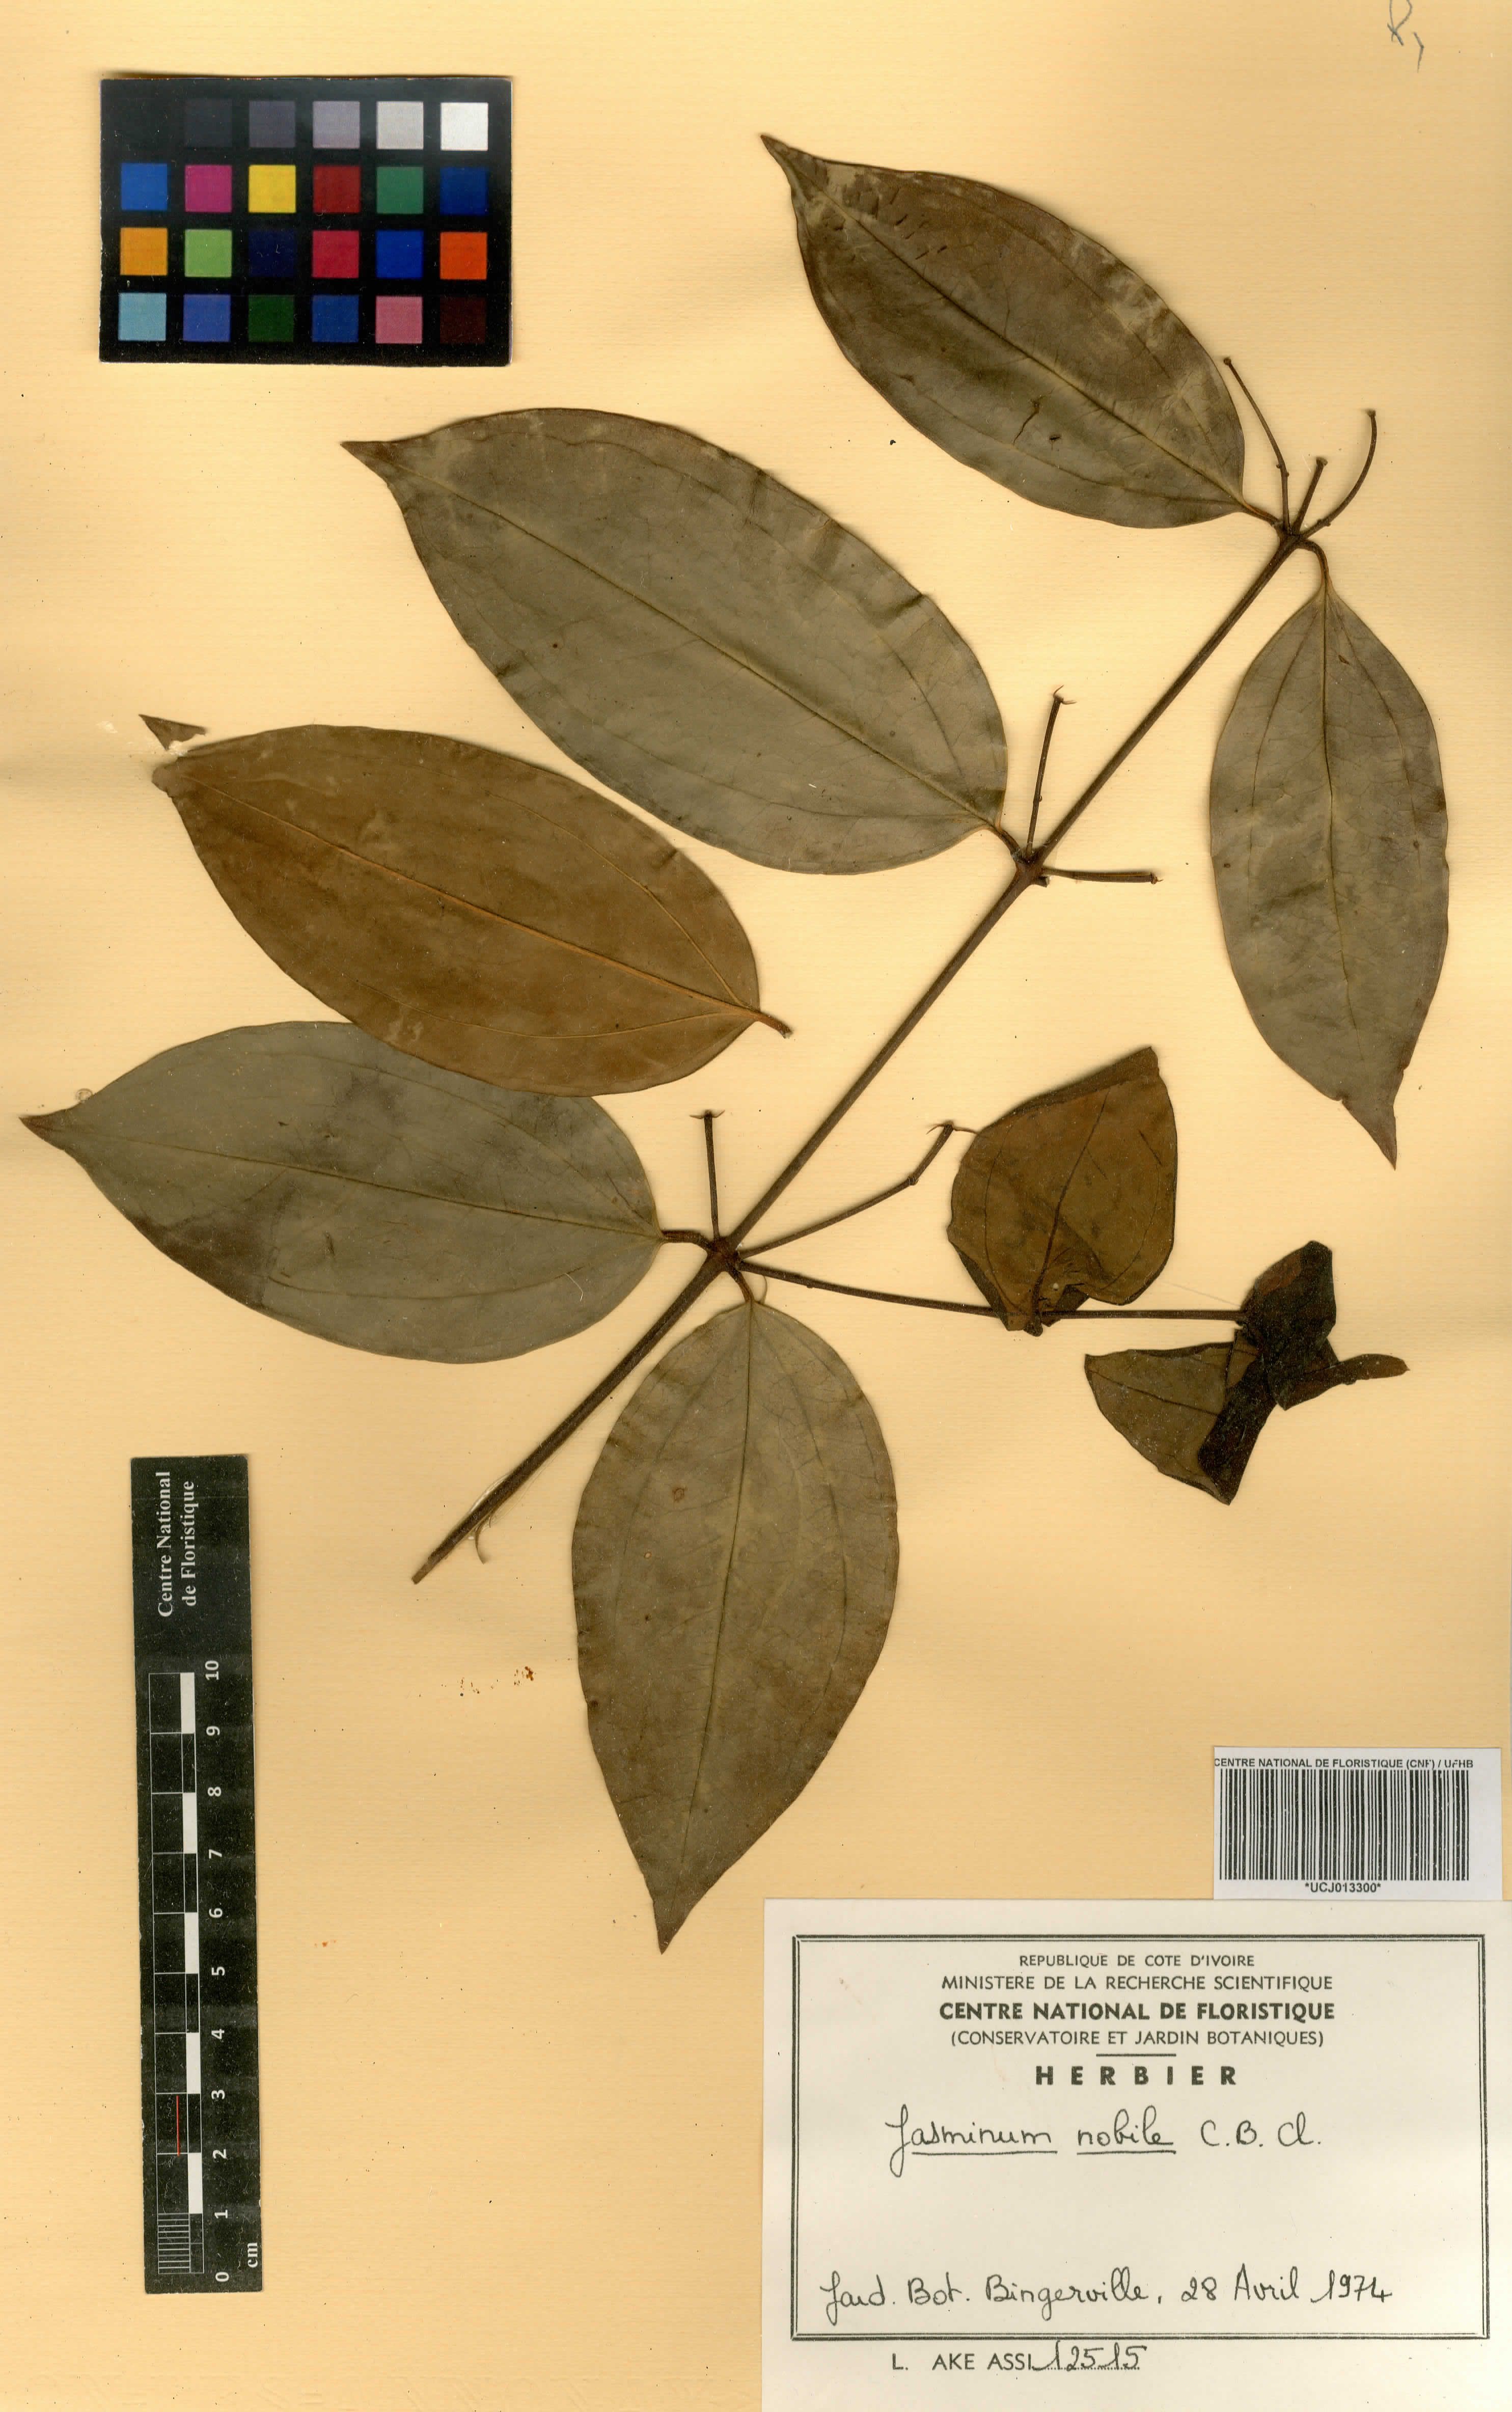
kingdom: Plantae
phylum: Tracheophyta
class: Magnoliopsida
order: Lamiales
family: Oleaceae
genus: Jasminum
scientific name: Jasminum nobile
